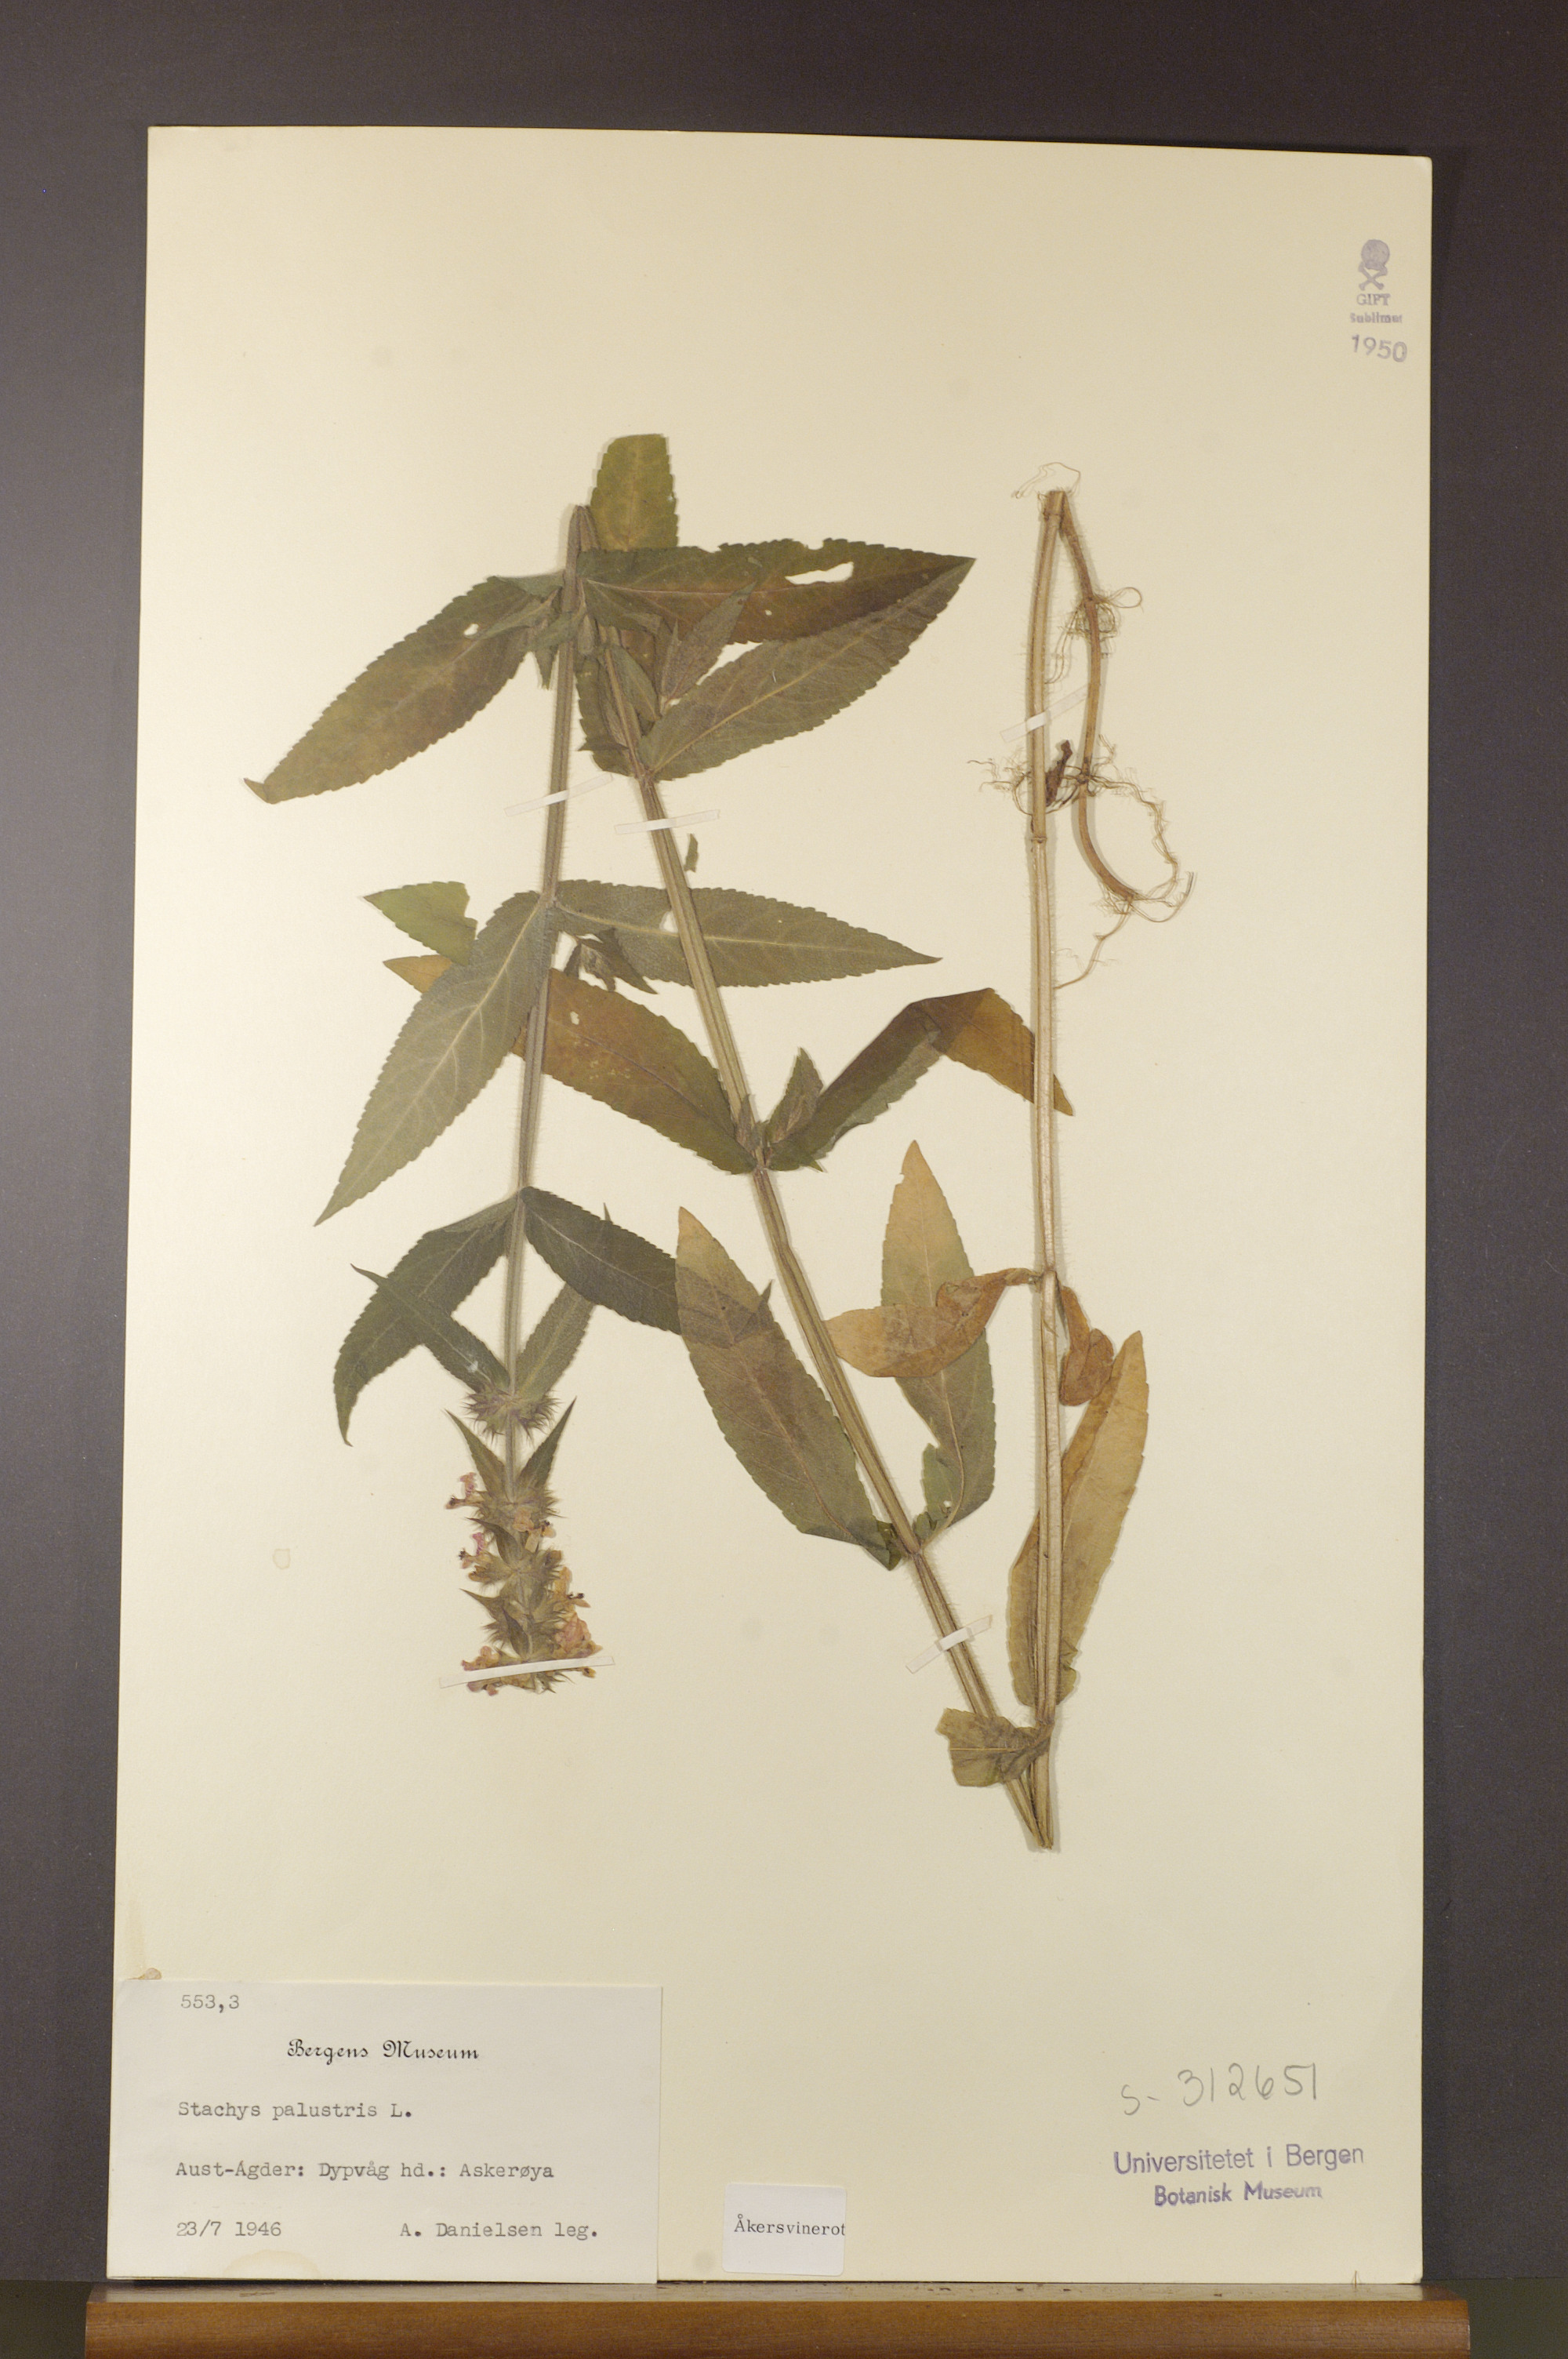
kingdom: Plantae
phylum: Tracheophyta
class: Magnoliopsida
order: Lamiales
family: Lamiaceae
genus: Stachys
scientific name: Stachys palustris
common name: Marsh woundwort
